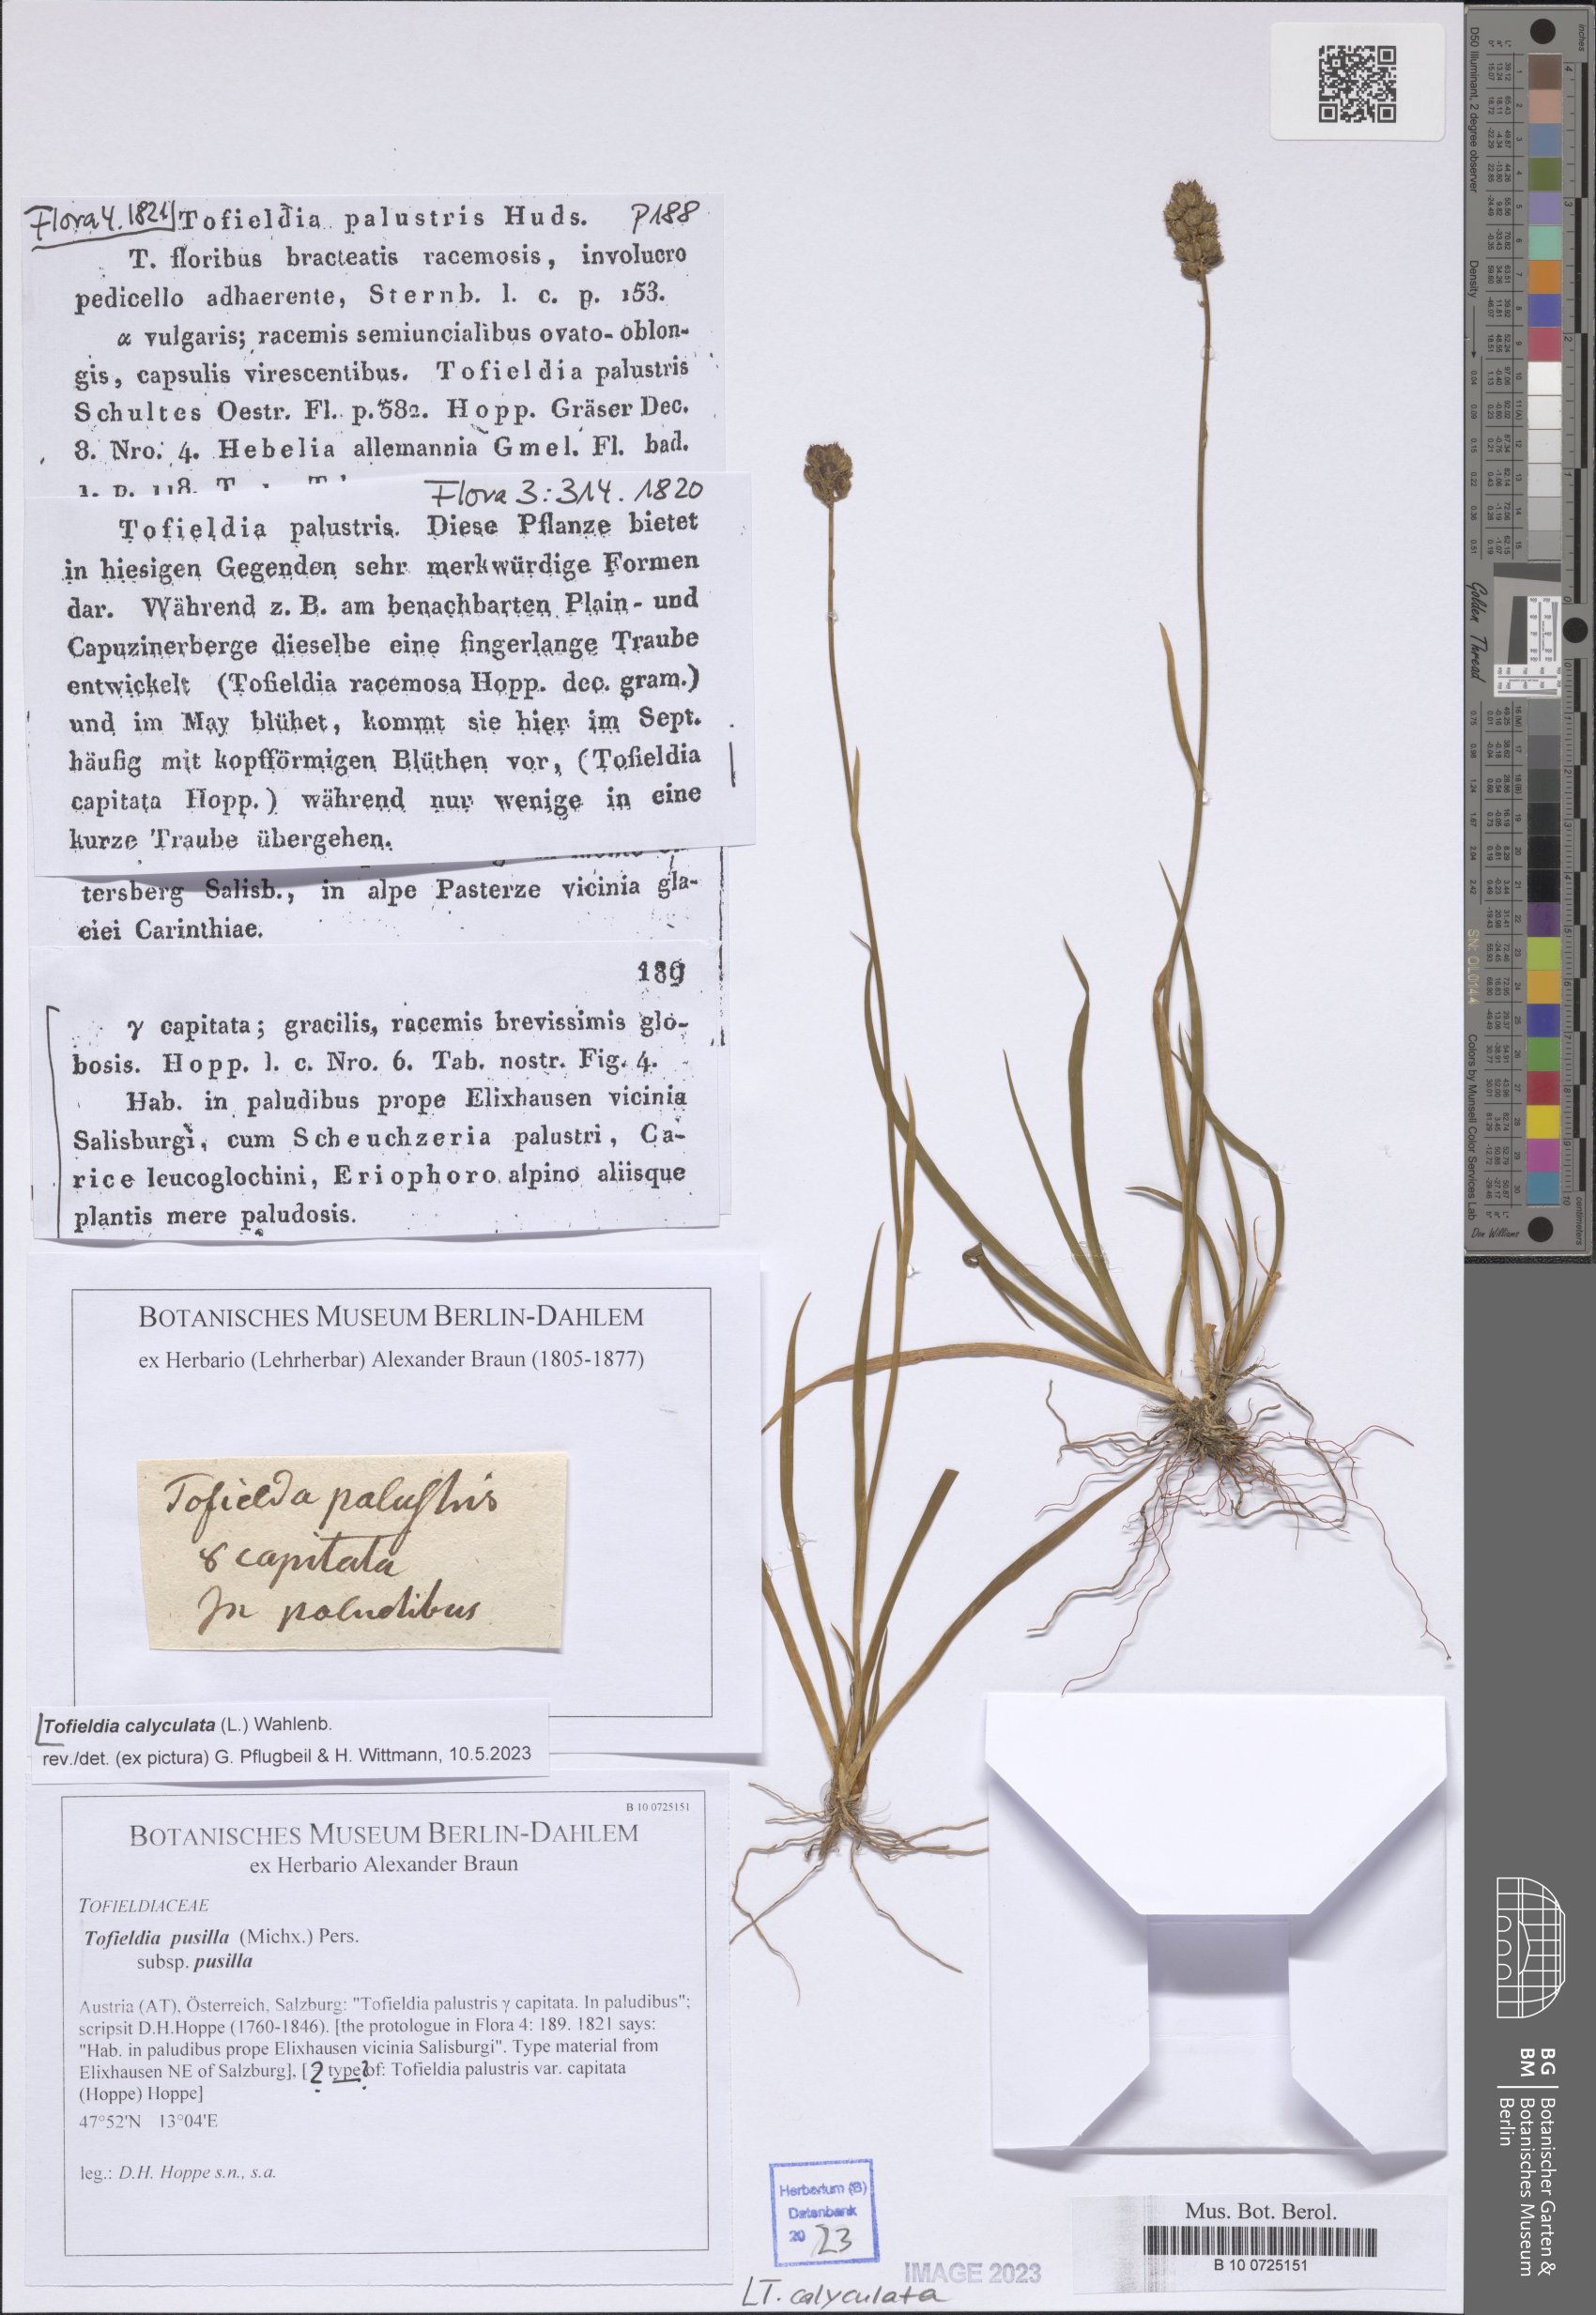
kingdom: Plantae
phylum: Tracheophyta
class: Liliopsida
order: Alismatales
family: Tofieldiaceae
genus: Tofieldia
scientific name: Tofieldia calyculata
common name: German-asphodel
